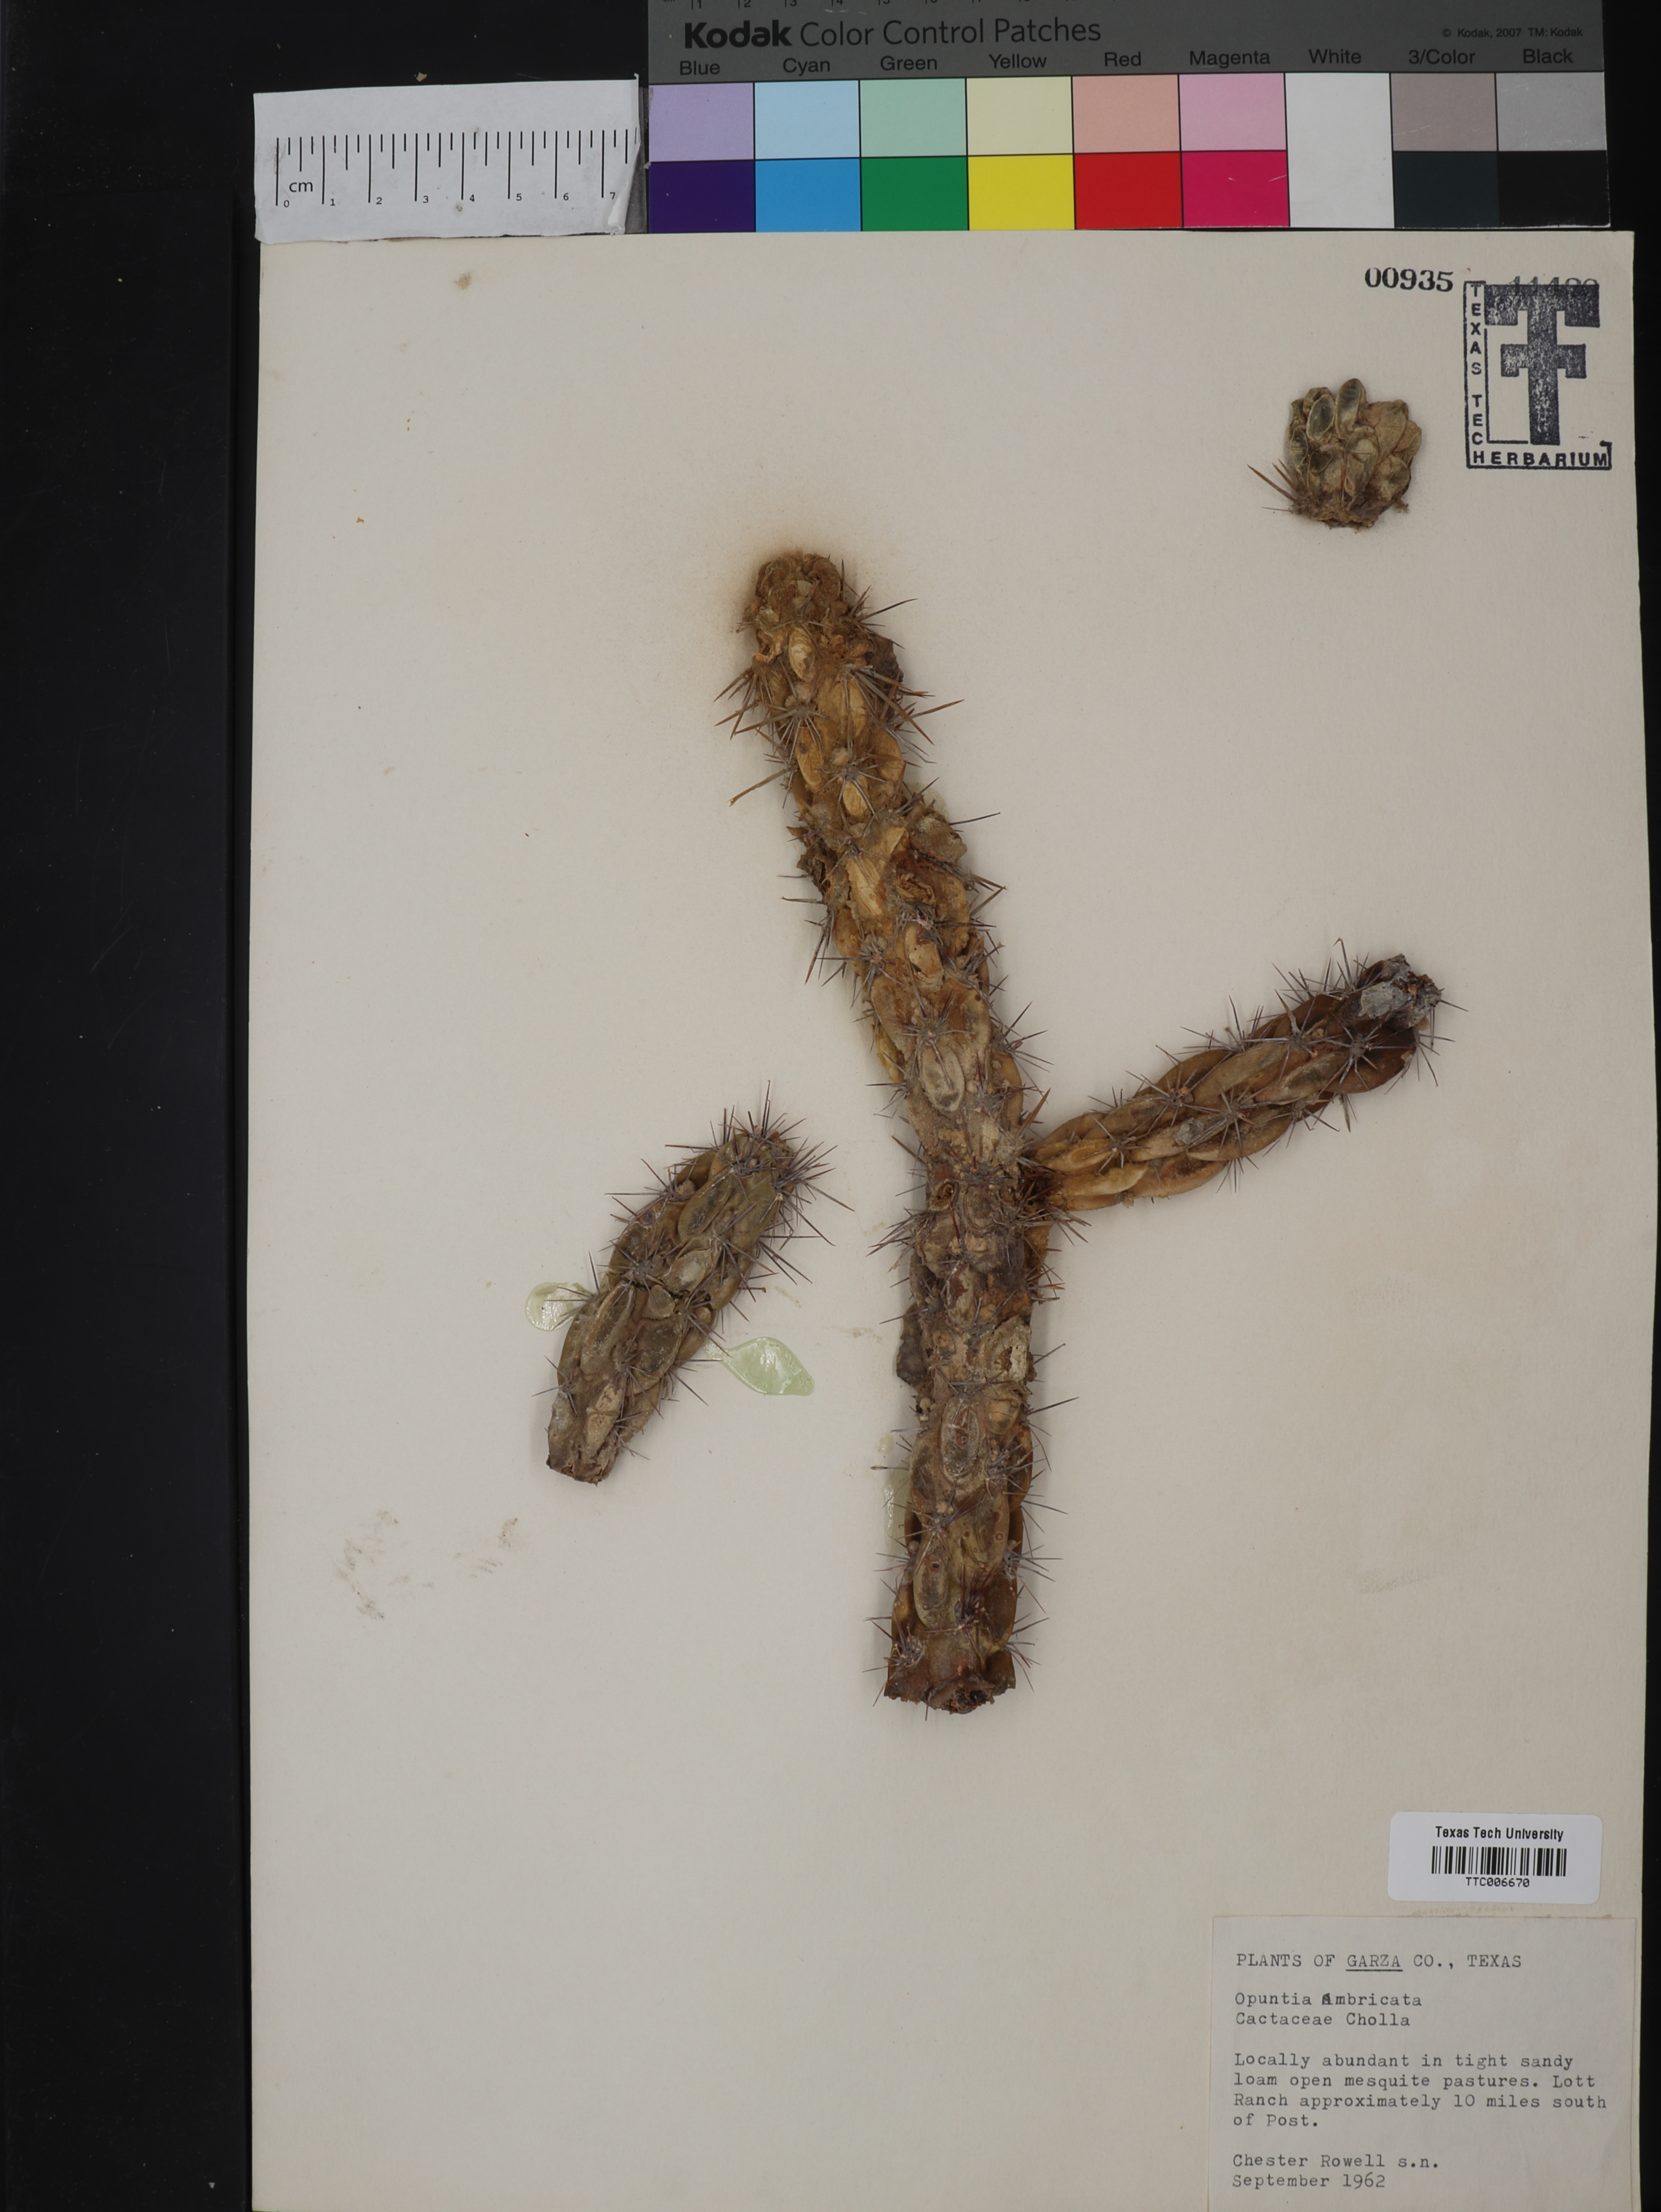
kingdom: Plantae
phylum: Tracheophyta
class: Magnoliopsida
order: Caryophyllales
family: Cactaceae
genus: Cylindropuntia
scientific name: Cylindropuntia imbricata
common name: Candelabrum cactus
